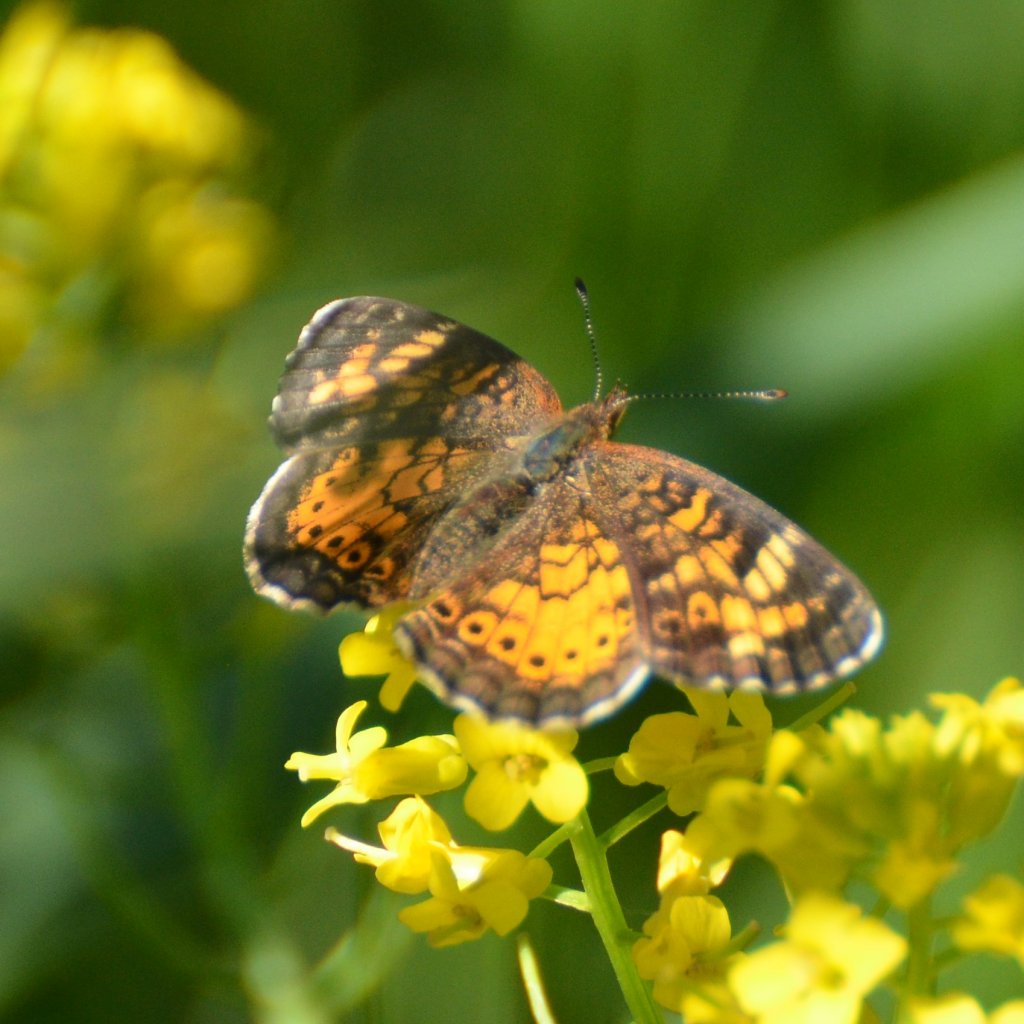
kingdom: Animalia
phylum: Arthropoda
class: Insecta
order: Lepidoptera
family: Nymphalidae
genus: Phyciodes
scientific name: Phyciodes tharos
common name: Northern Crescent
